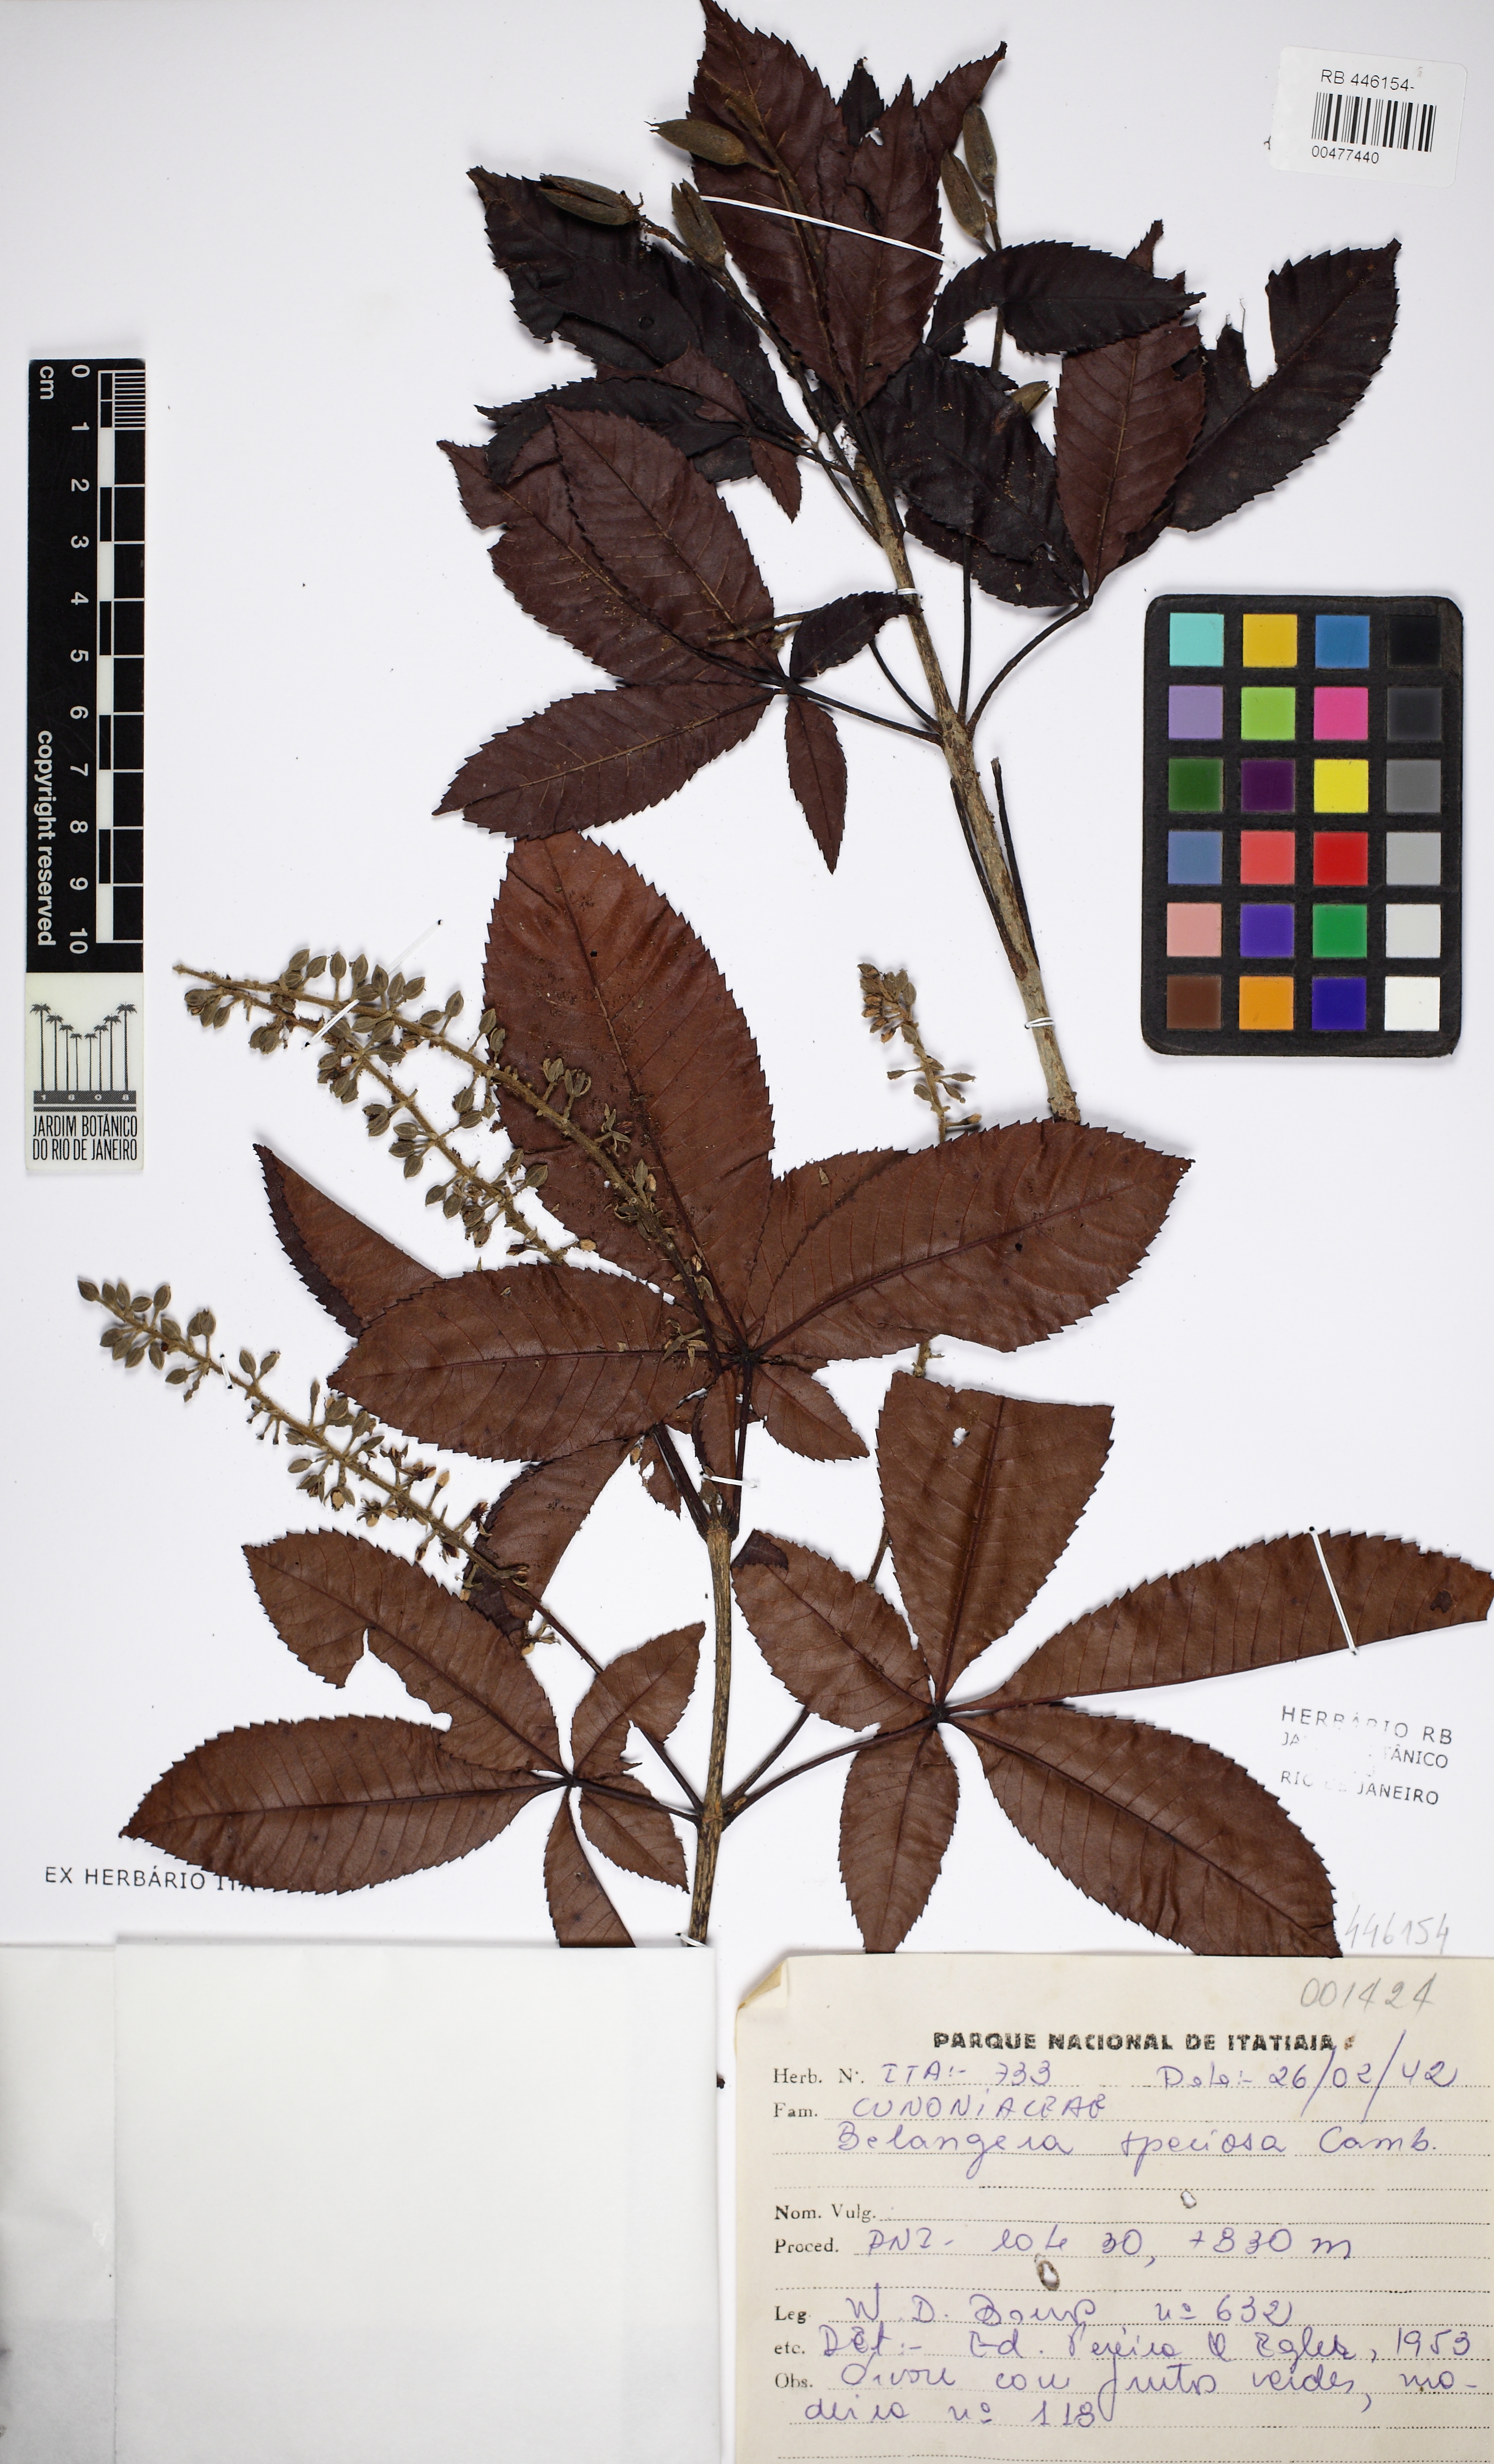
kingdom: Plantae
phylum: Tracheophyta
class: Magnoliopsida
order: Oxalidales
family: Cunoniaceae
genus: Lamanonia
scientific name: Lamanonia speciosa
